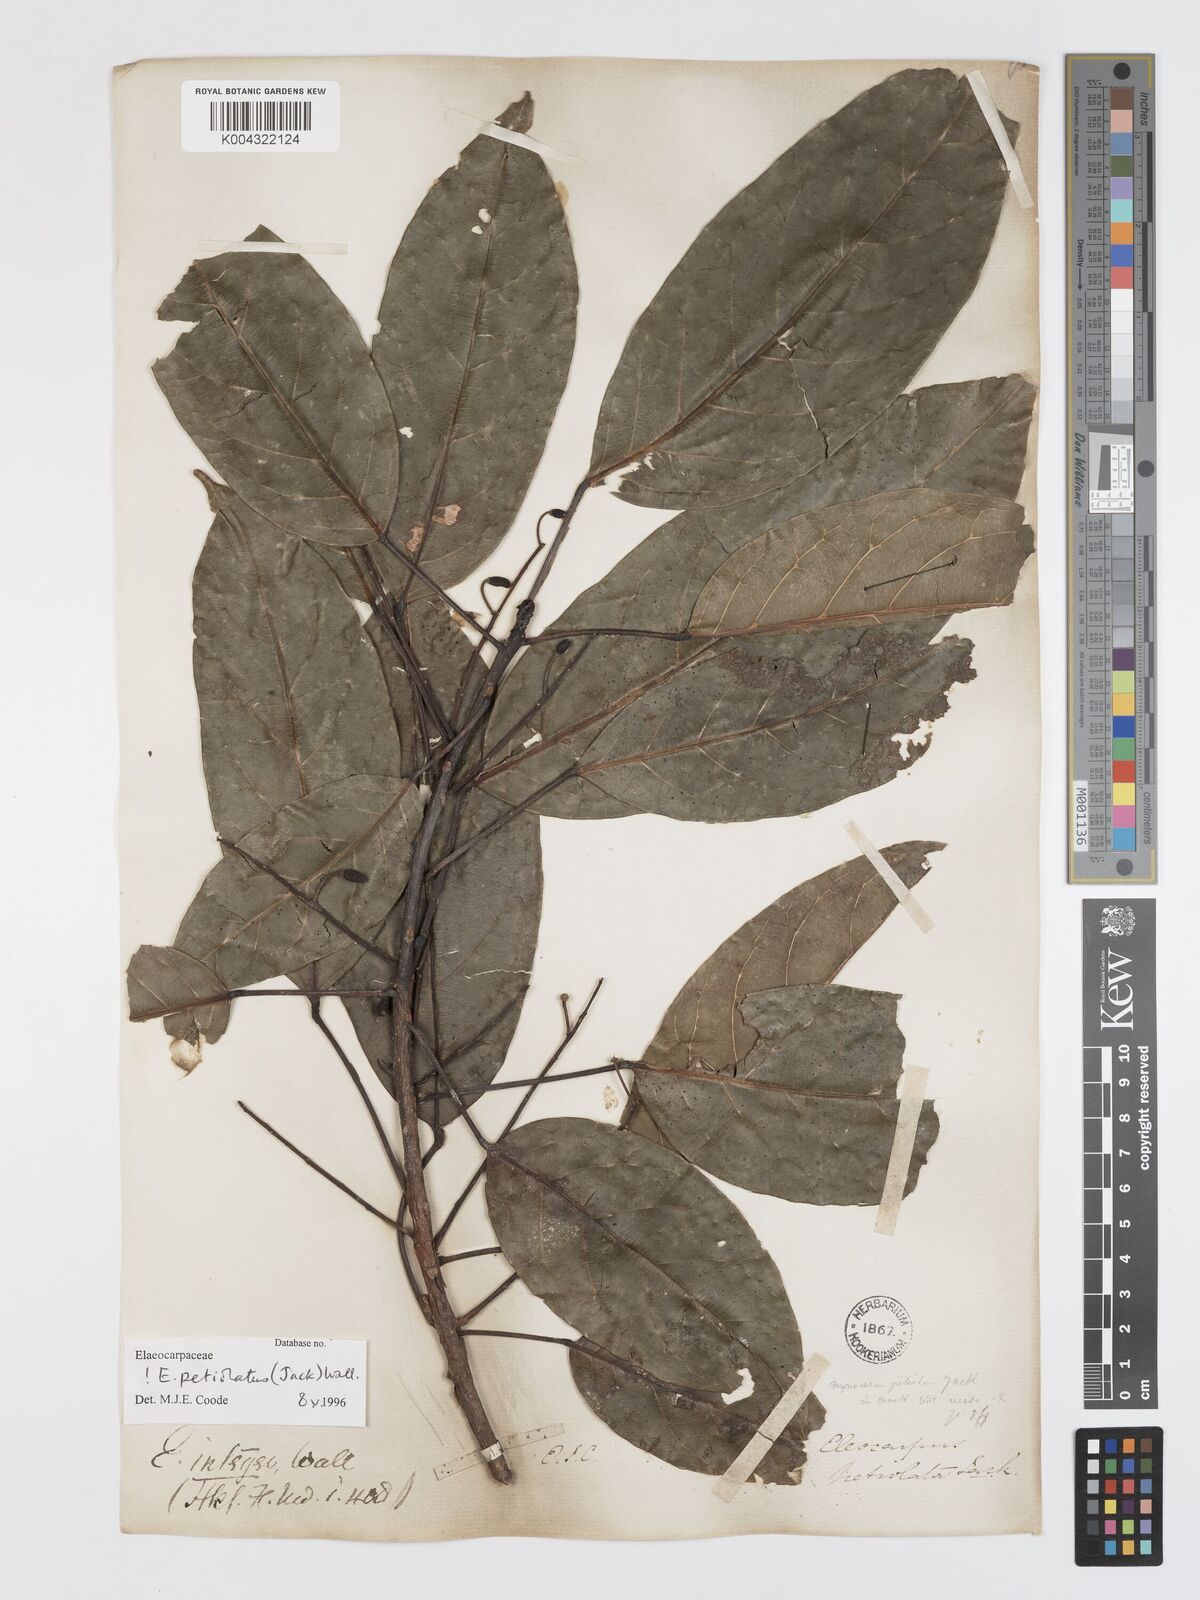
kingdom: Plantae
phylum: Tracheophyta
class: Magnoliopsida
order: Oxalidales
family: Elaeocarpaceae
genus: Elaeocarpus
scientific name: Elaeocarpus petiolatus
